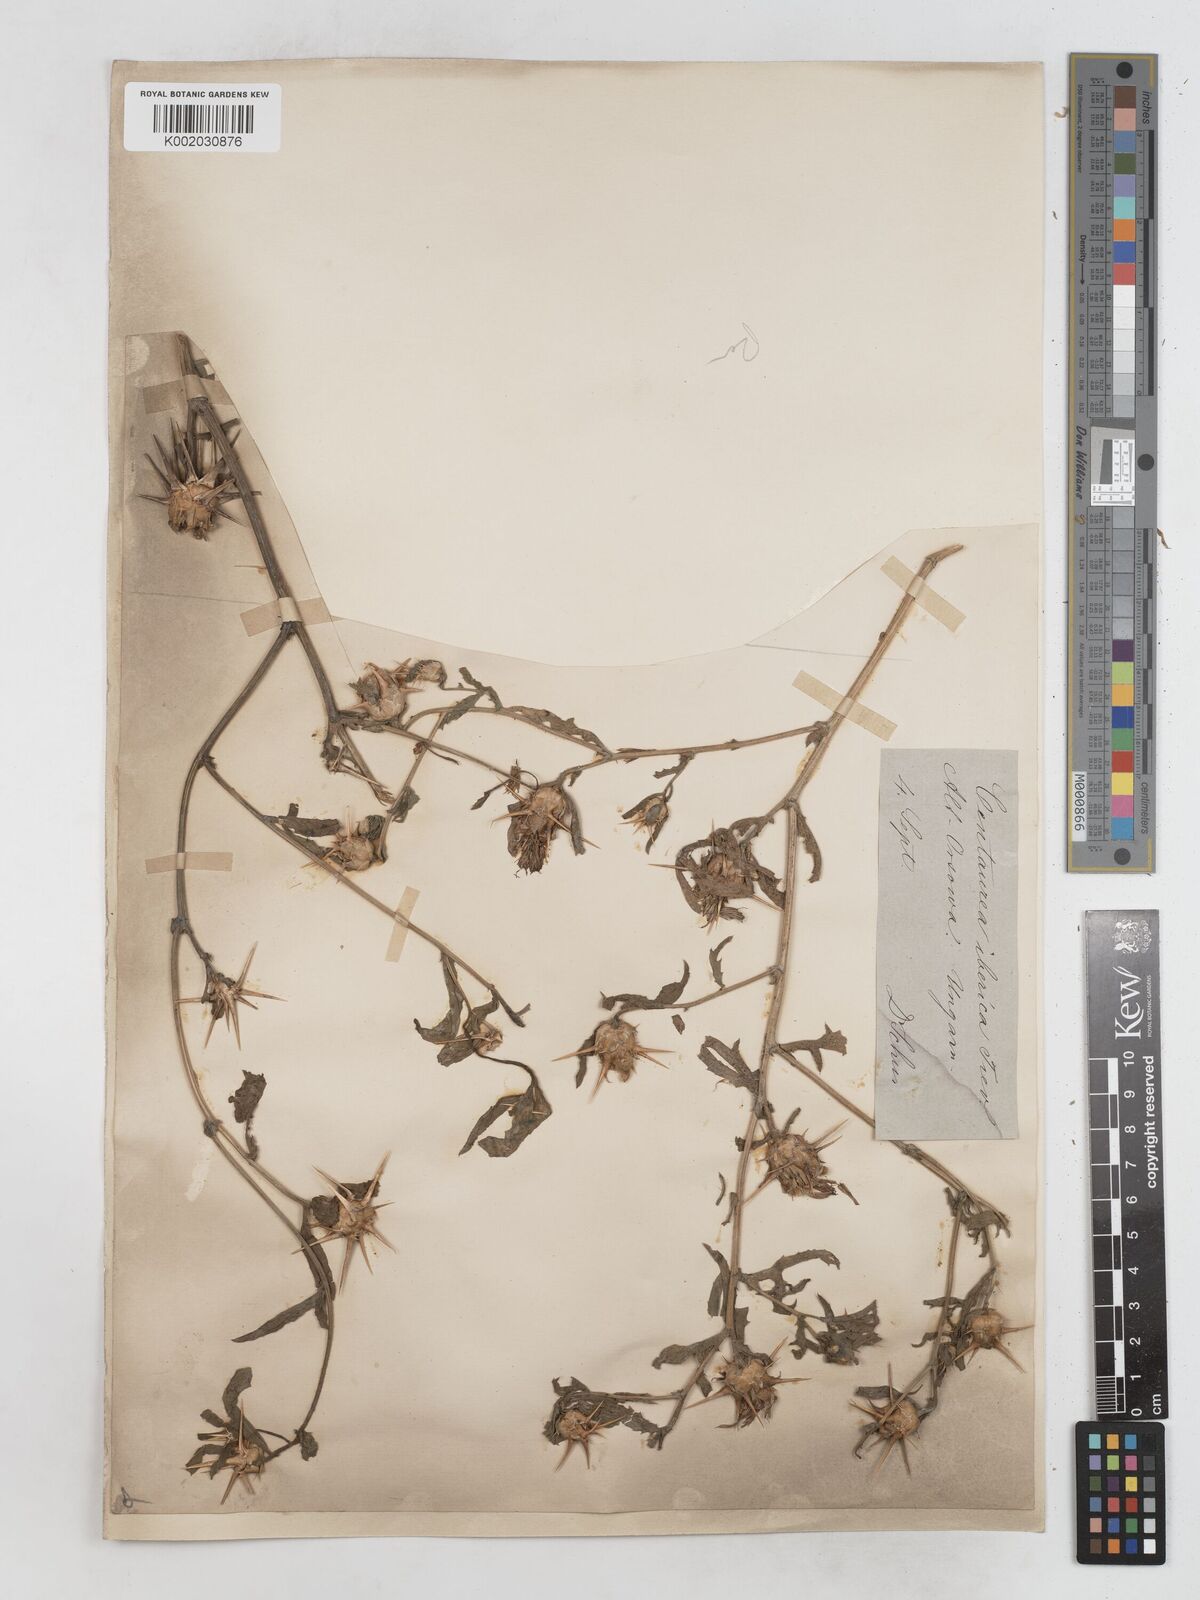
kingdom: Plantae
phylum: Tracheophyta
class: Magnoliopsida
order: Asterales
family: Asteraceae
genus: Centaurea
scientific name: Centaurea iberica
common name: Iberian knapweed
